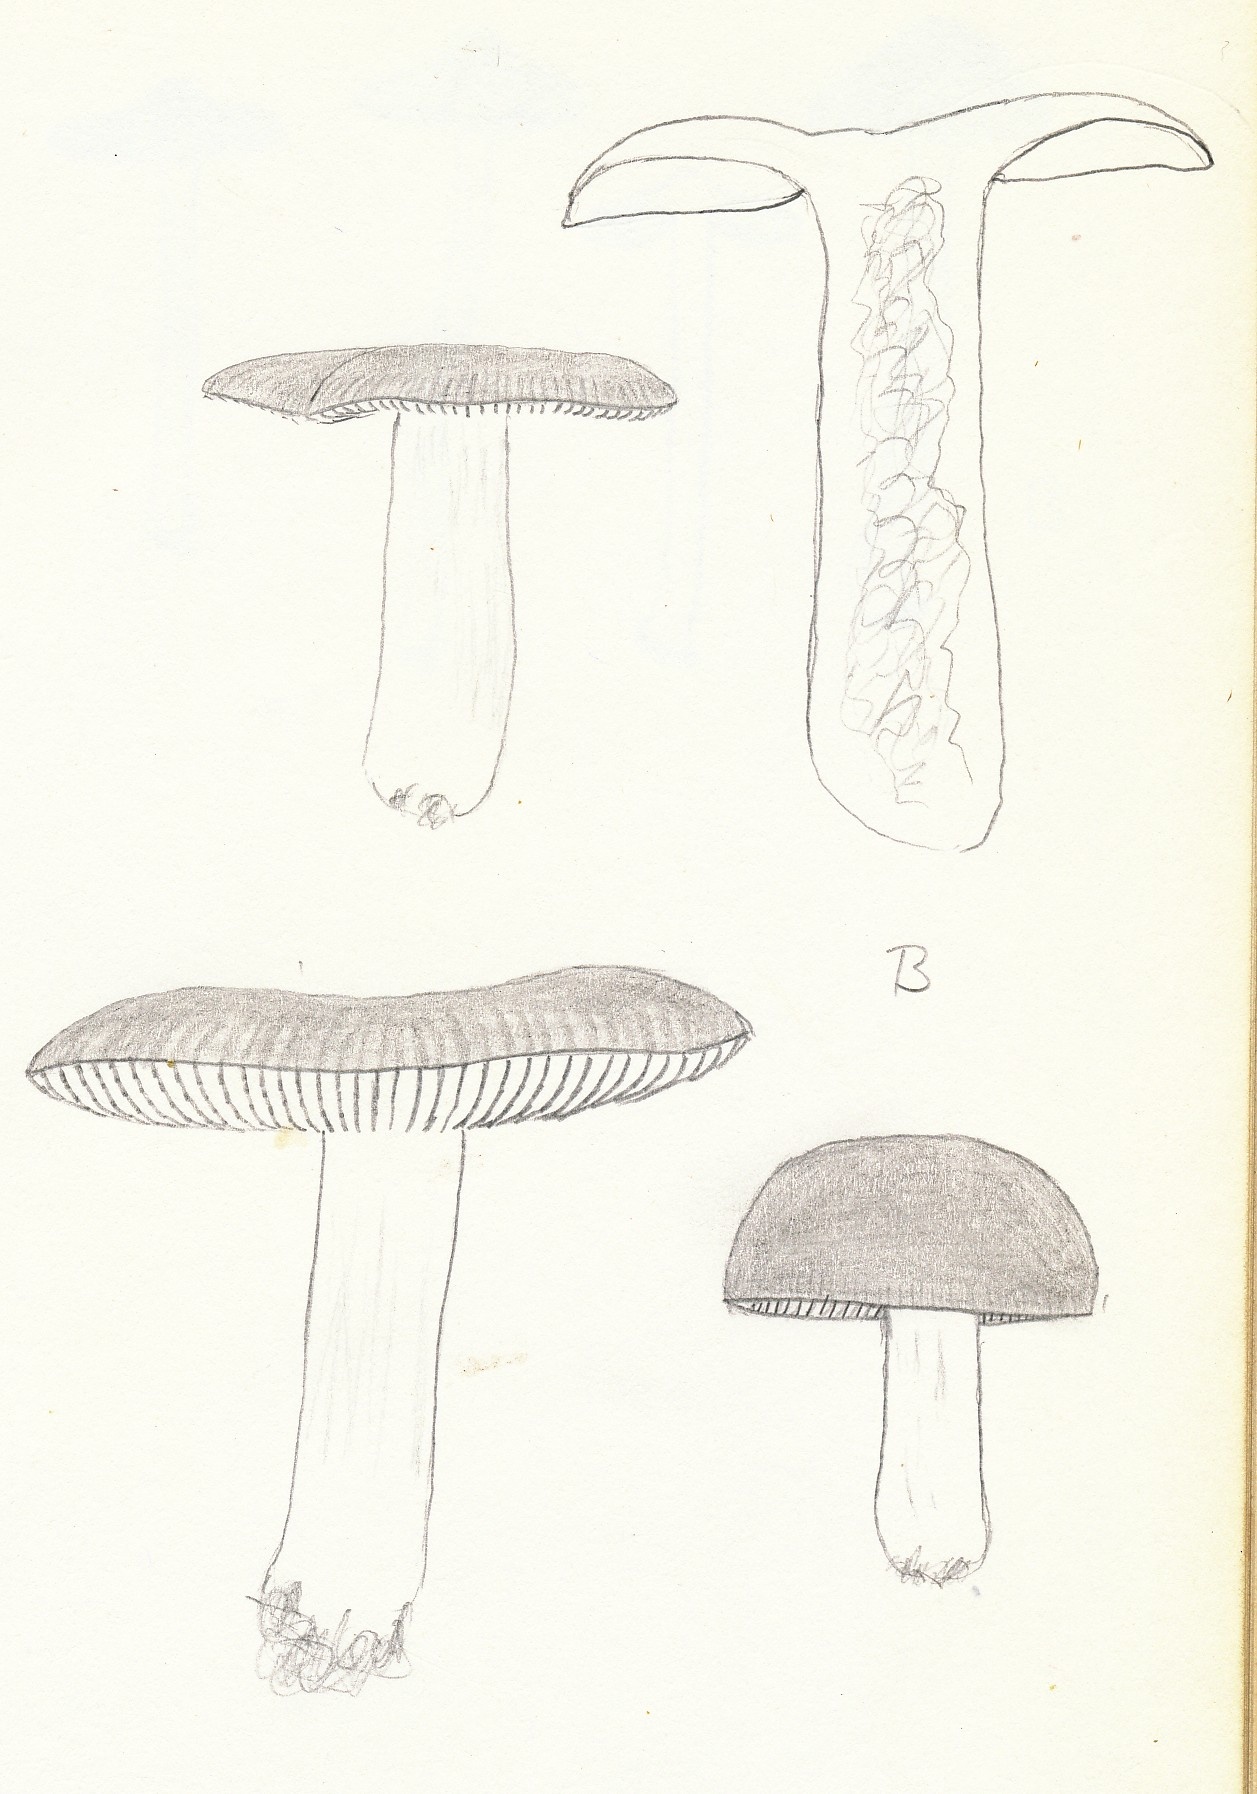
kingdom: Fungi
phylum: Basidiomycota
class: Agaricomycetes
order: Russulales
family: Russulaceae
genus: Russula
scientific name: Russula aurora
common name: rosa skørhat
